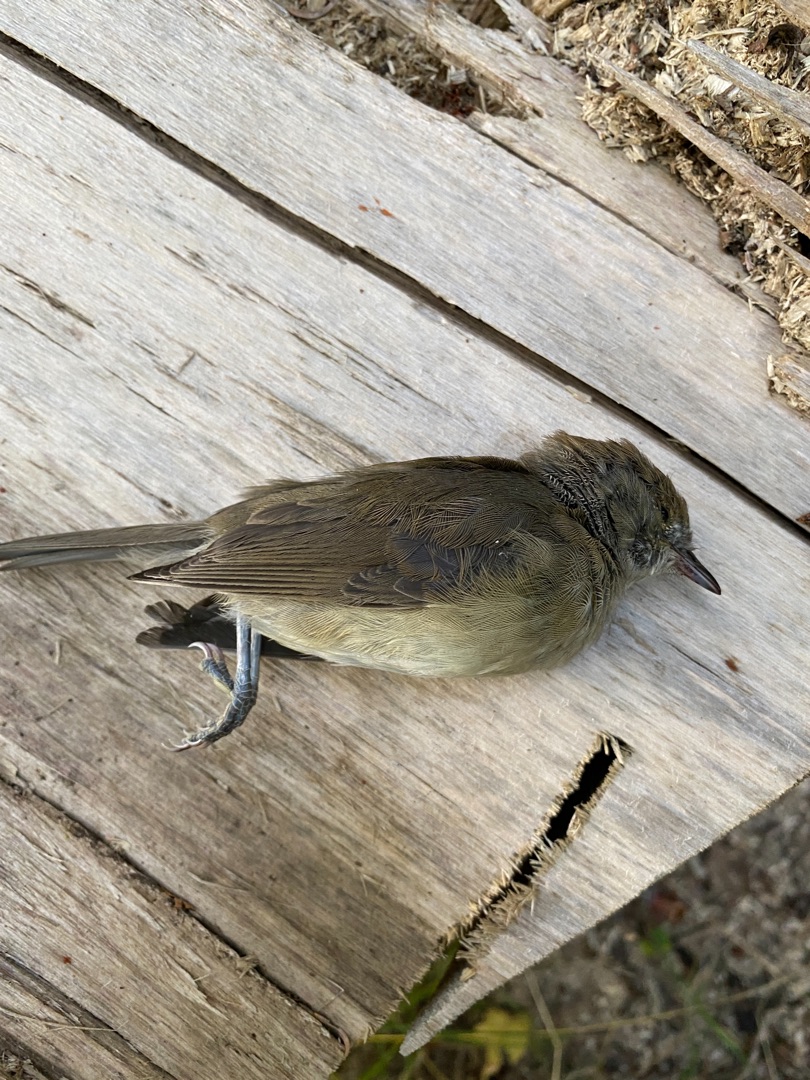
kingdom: Animalia
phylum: Chordata
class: Aves
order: Passeriformes
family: Sylviidae
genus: Sylvia
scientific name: Sylvia borin
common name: Havesanger
